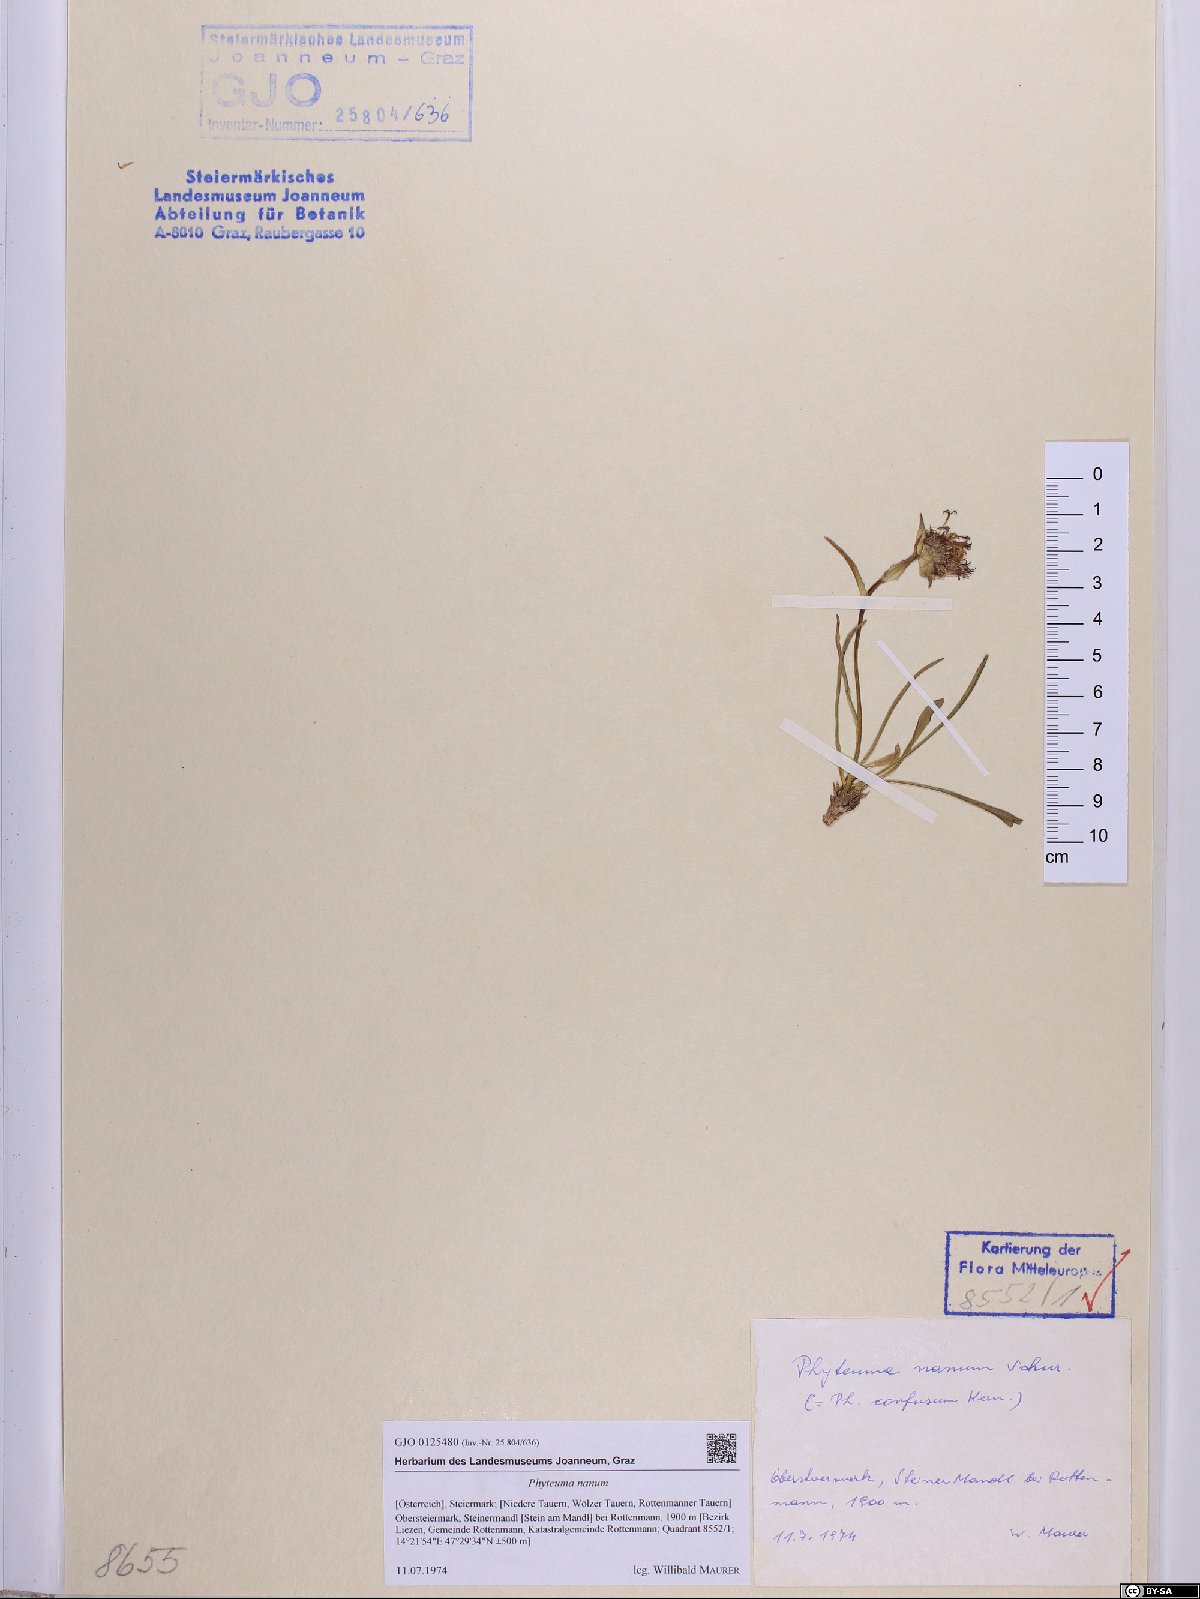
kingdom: Plantae
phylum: Tracheophyta
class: Magnoliopsida
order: Asterales
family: Campanulaceae
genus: Phyteuma
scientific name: Phyteuma globulariifolium
